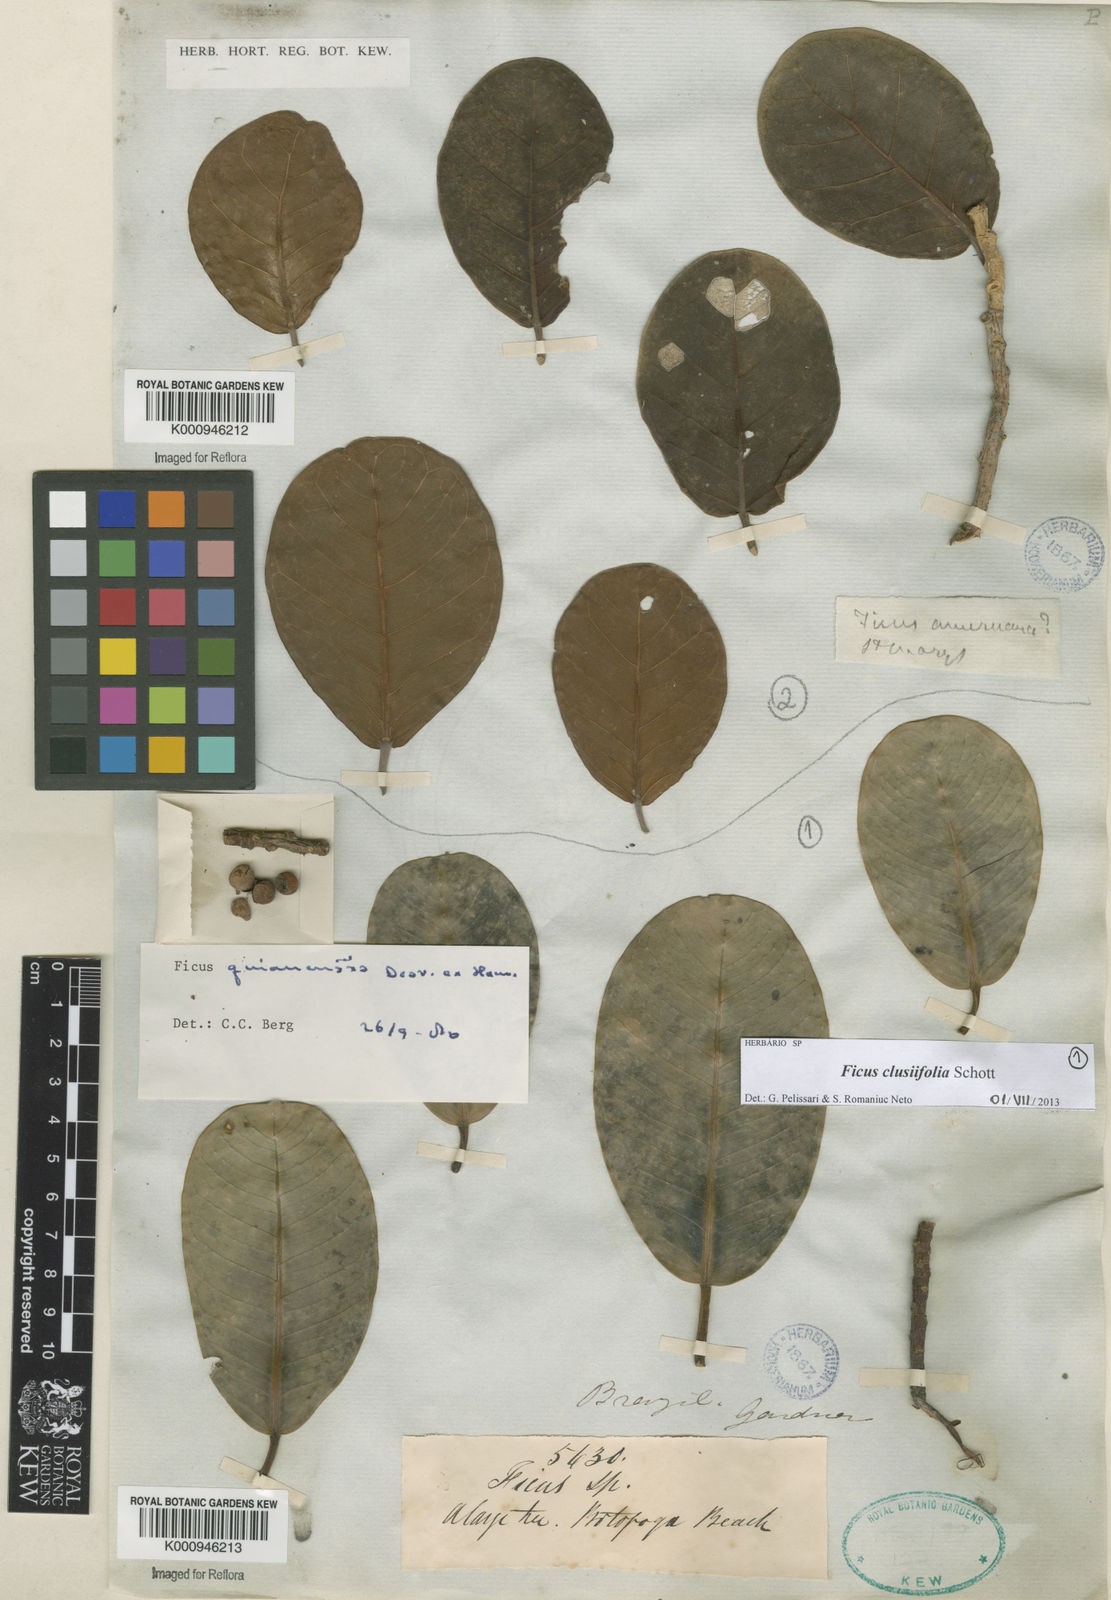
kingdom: Plantae
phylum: Tracheophyta
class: Magnoliopsida
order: Rosales
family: Moraceae
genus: Ficus
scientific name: Ficus americana
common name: Jamaican cherry fig
